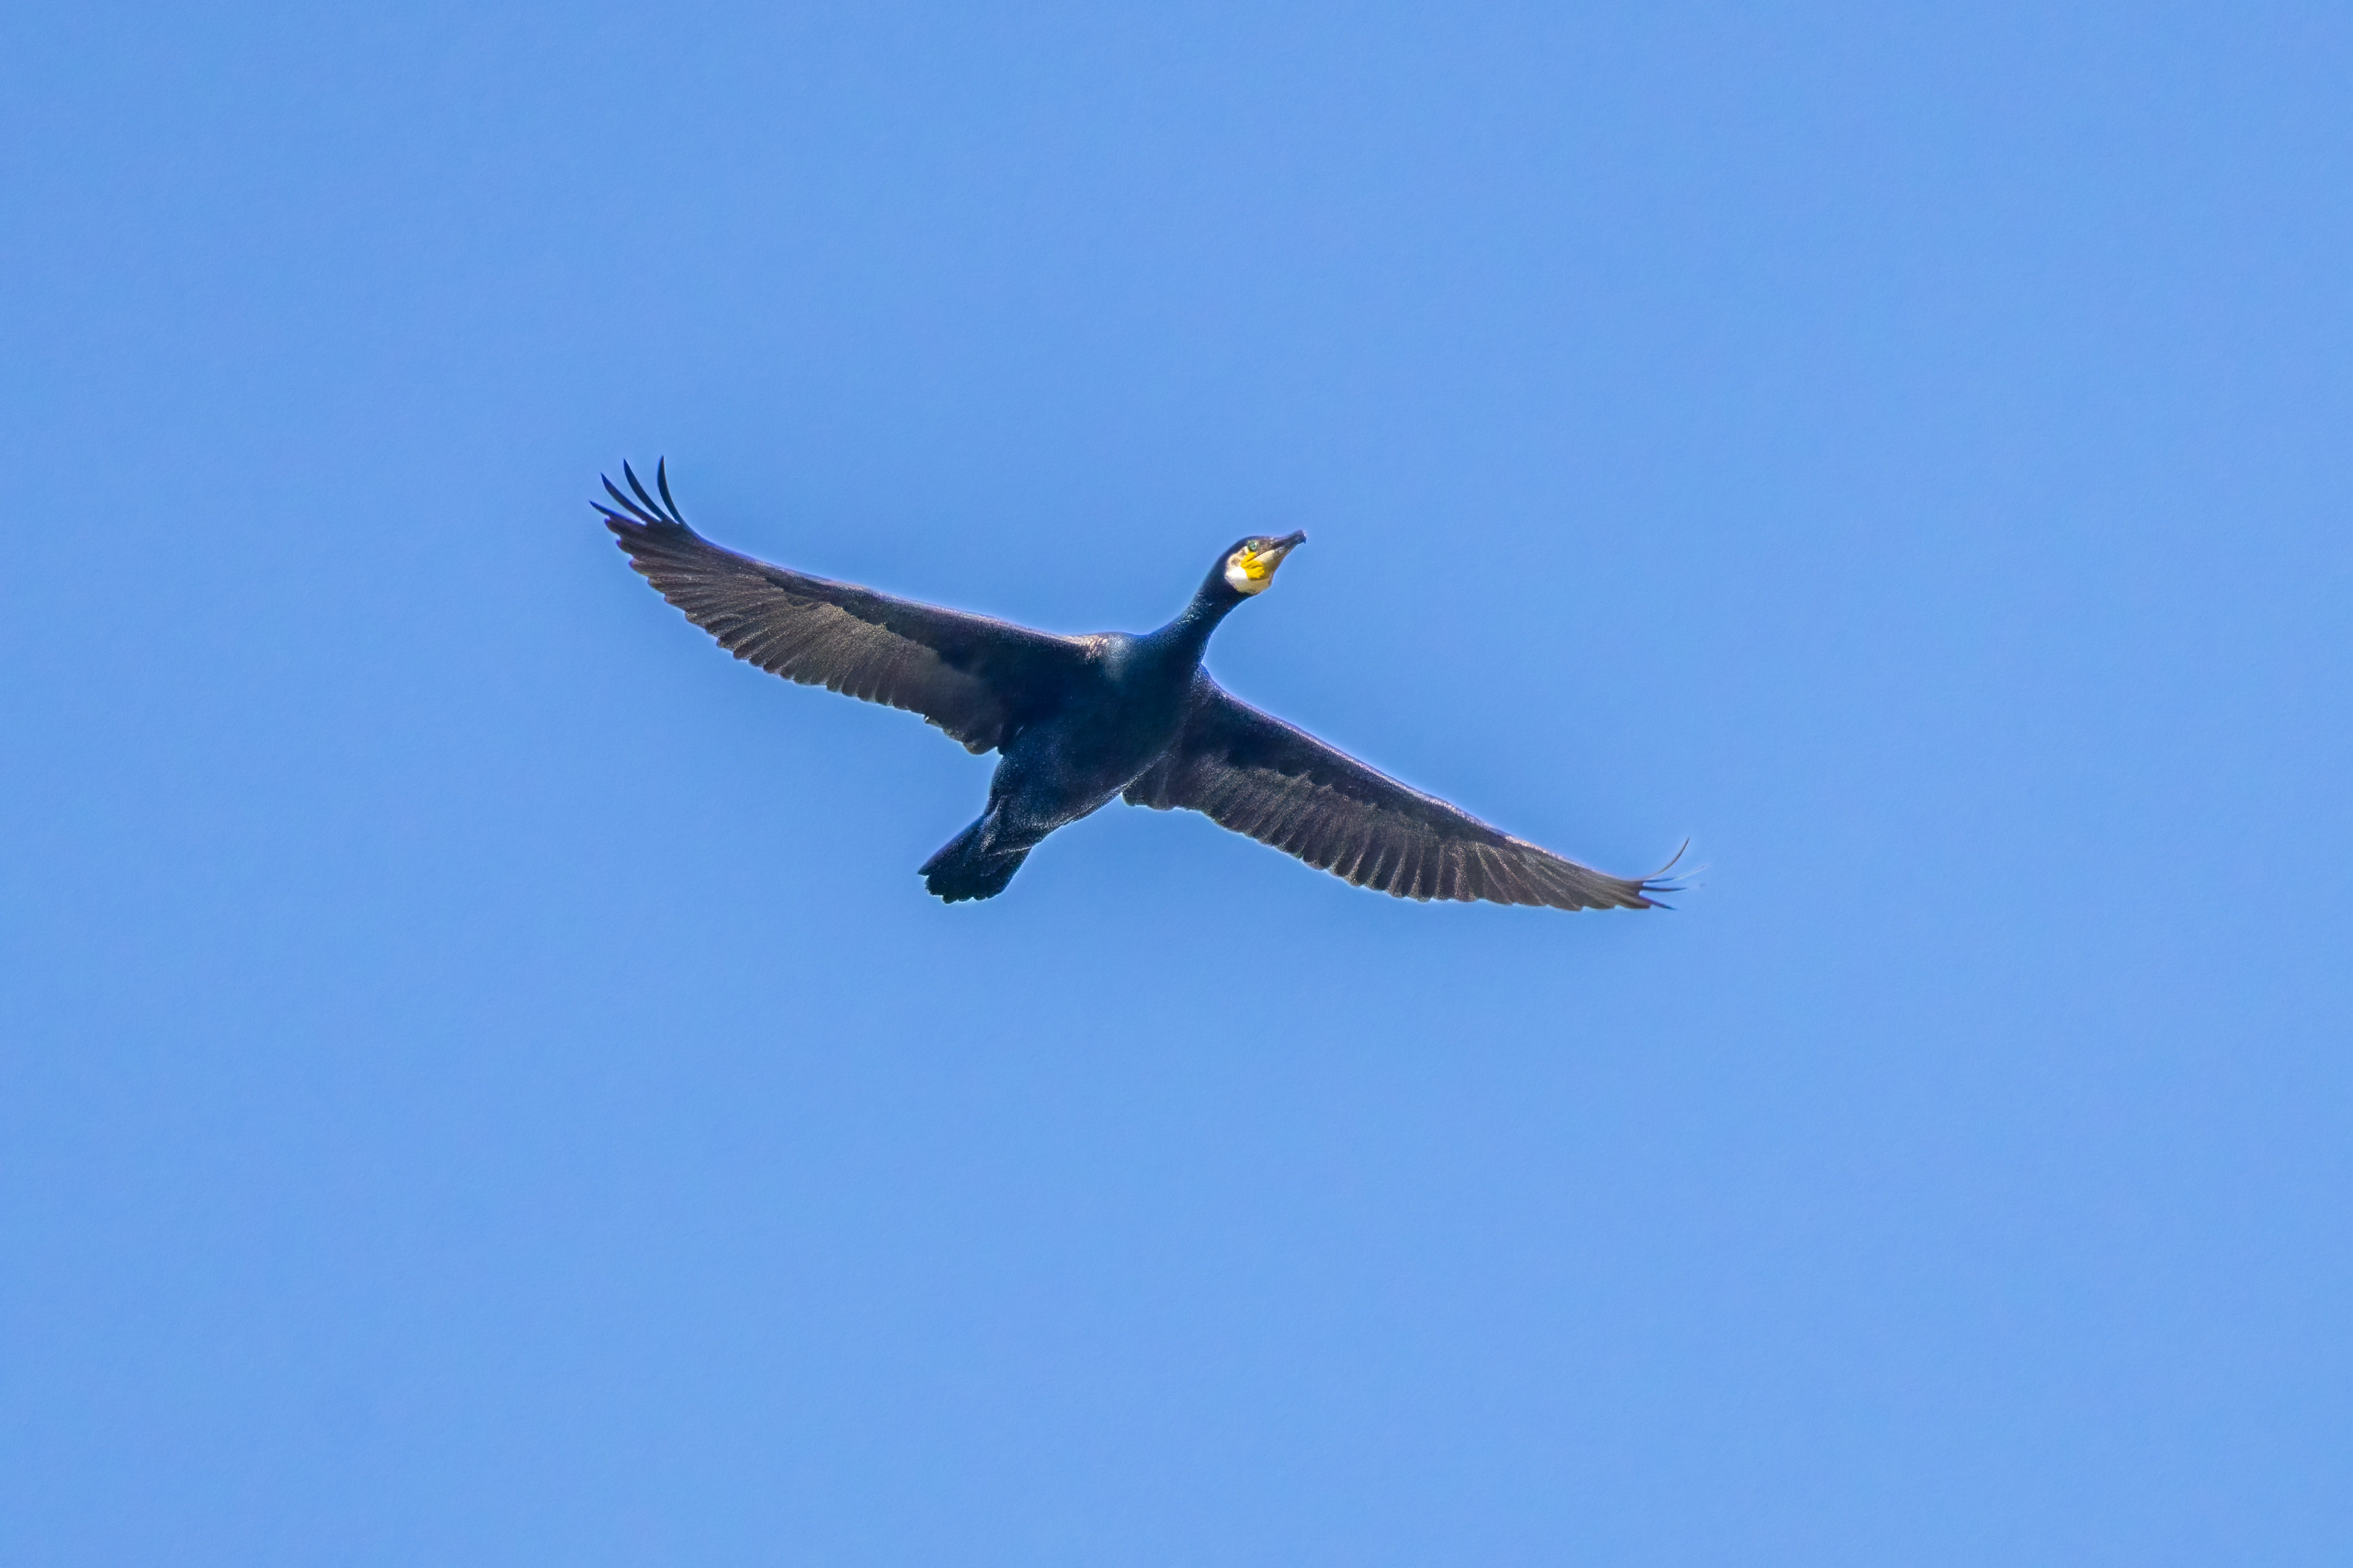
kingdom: Animalia
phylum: Chordata
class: Aves
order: Suliformes
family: Phalacrocoracidae
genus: Phalacrocorax
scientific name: Phalacrocorax carbo
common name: Skarv
